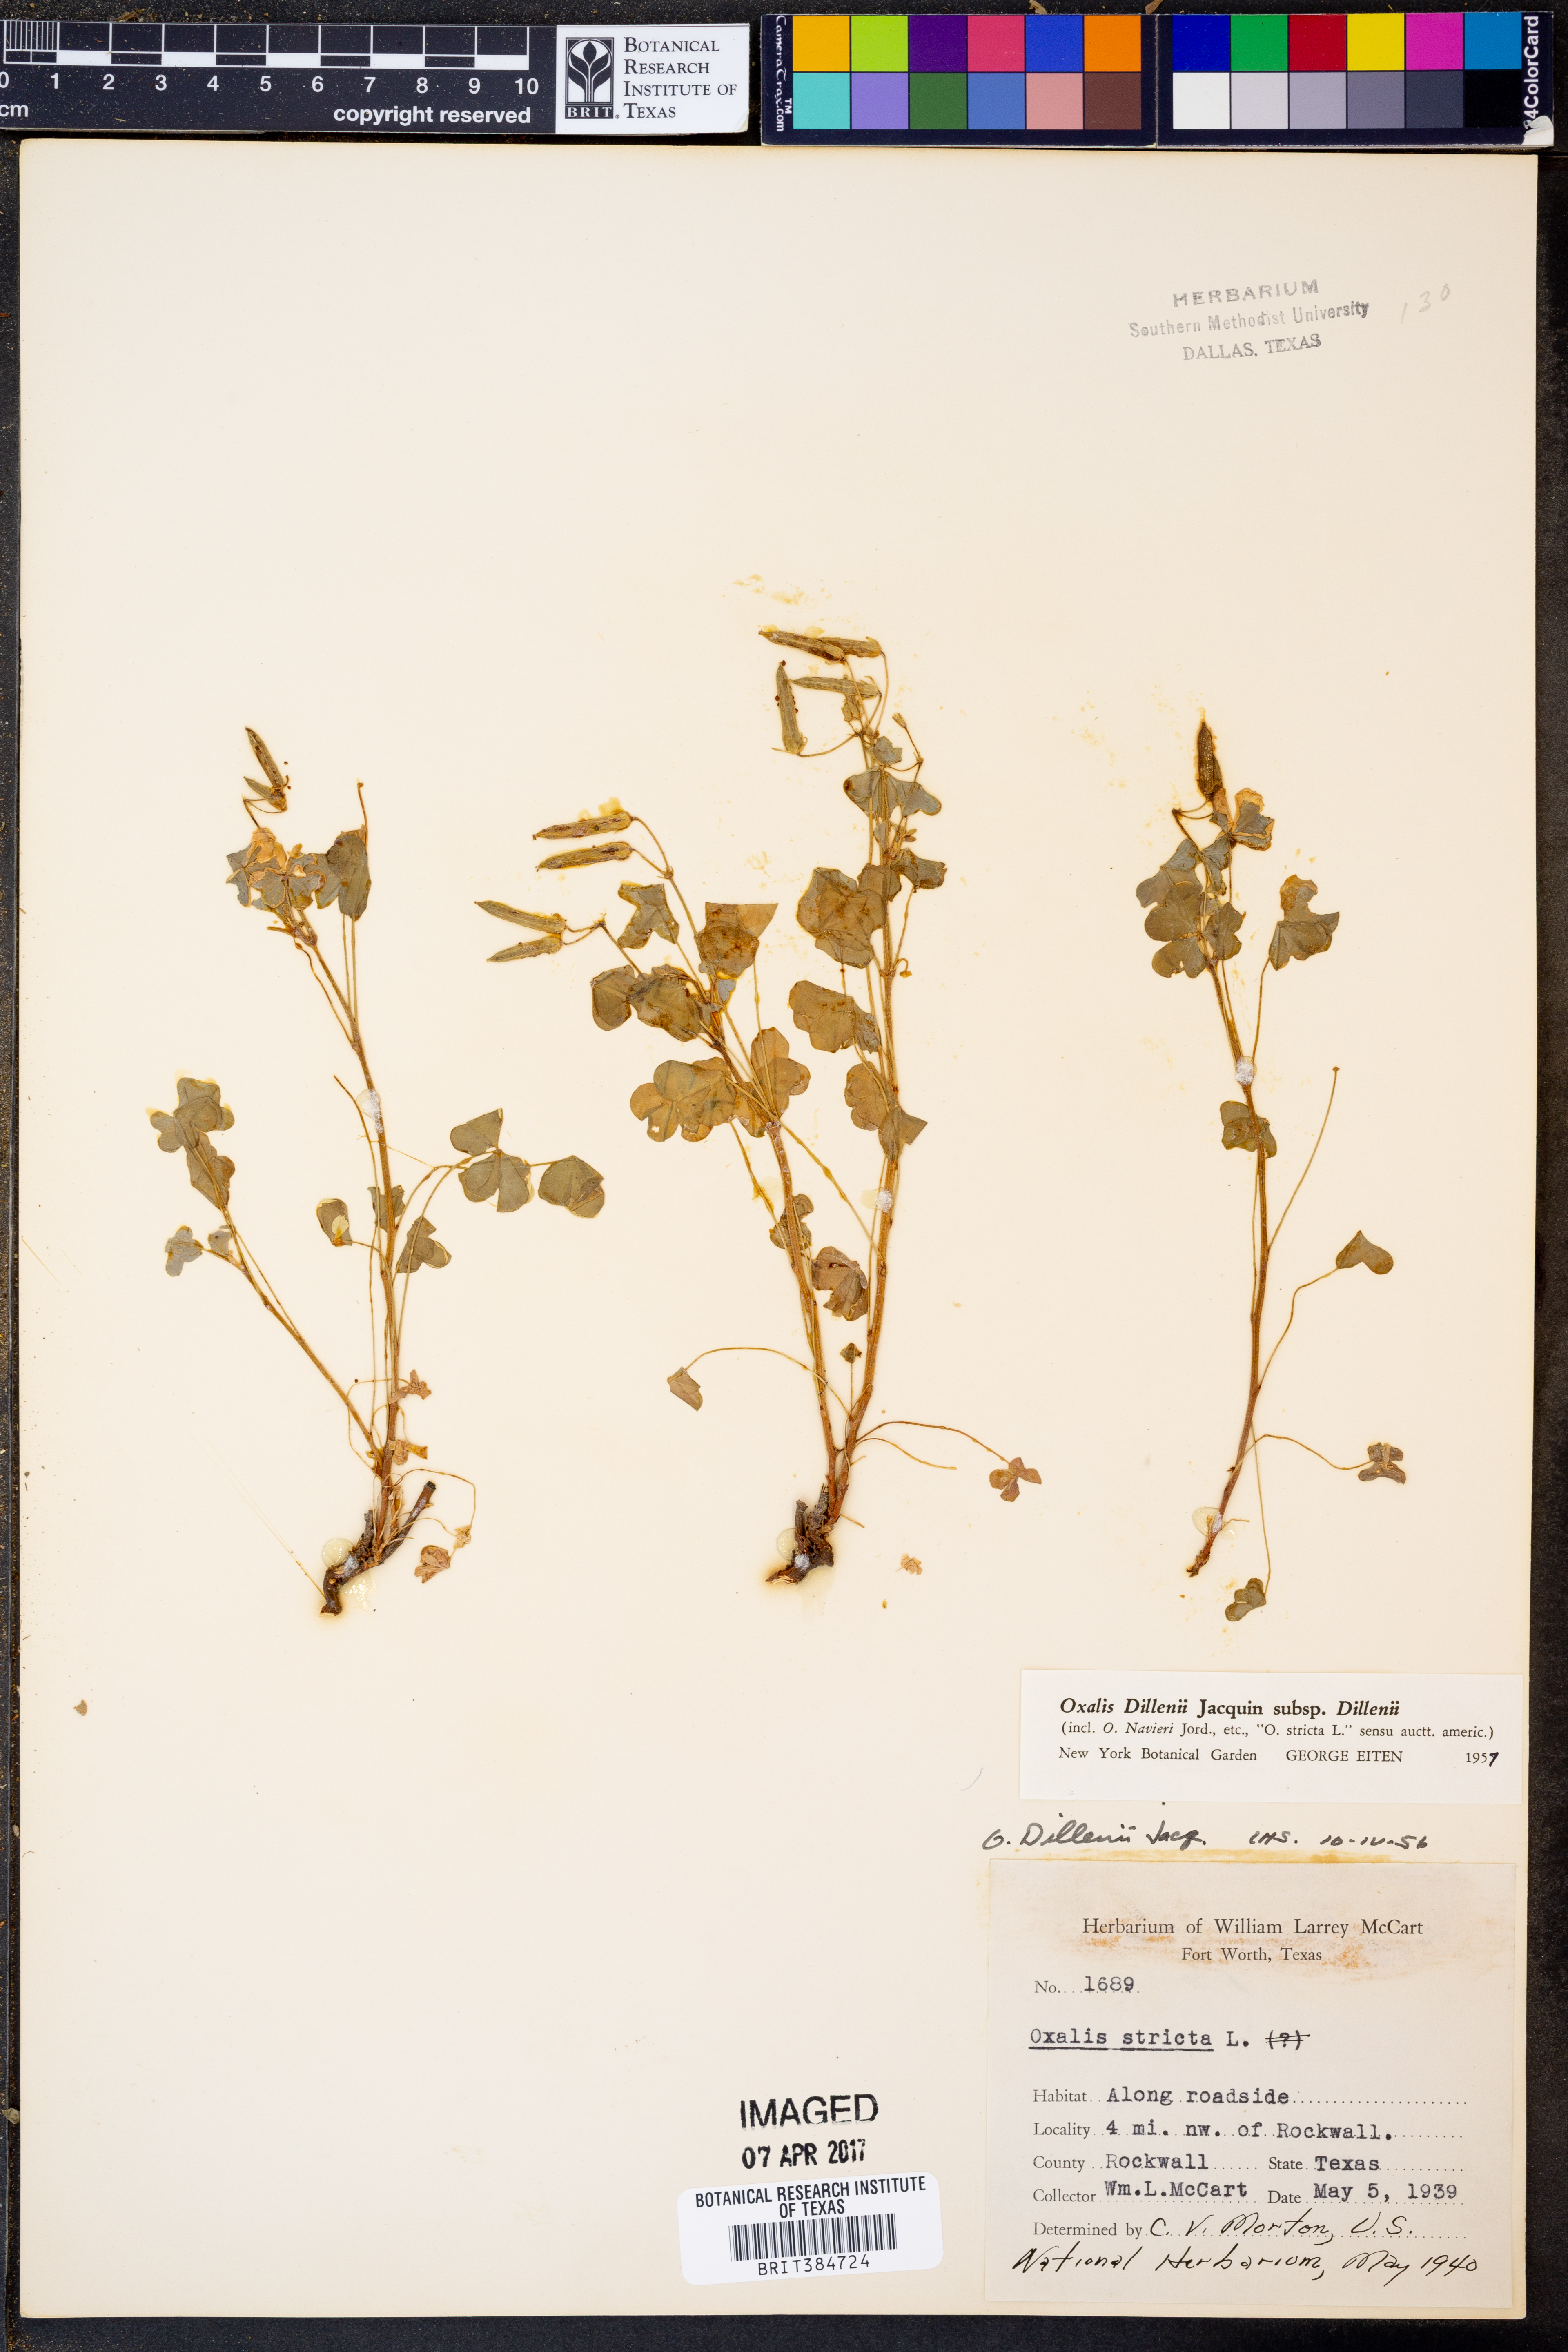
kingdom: Plantae
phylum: Tracheophyta
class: Magnoliopsida
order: Oxalidales
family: Oxalidaceae
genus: Oxalis
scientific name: Oxalis dillenii
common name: Sussex yellow-sorrel
